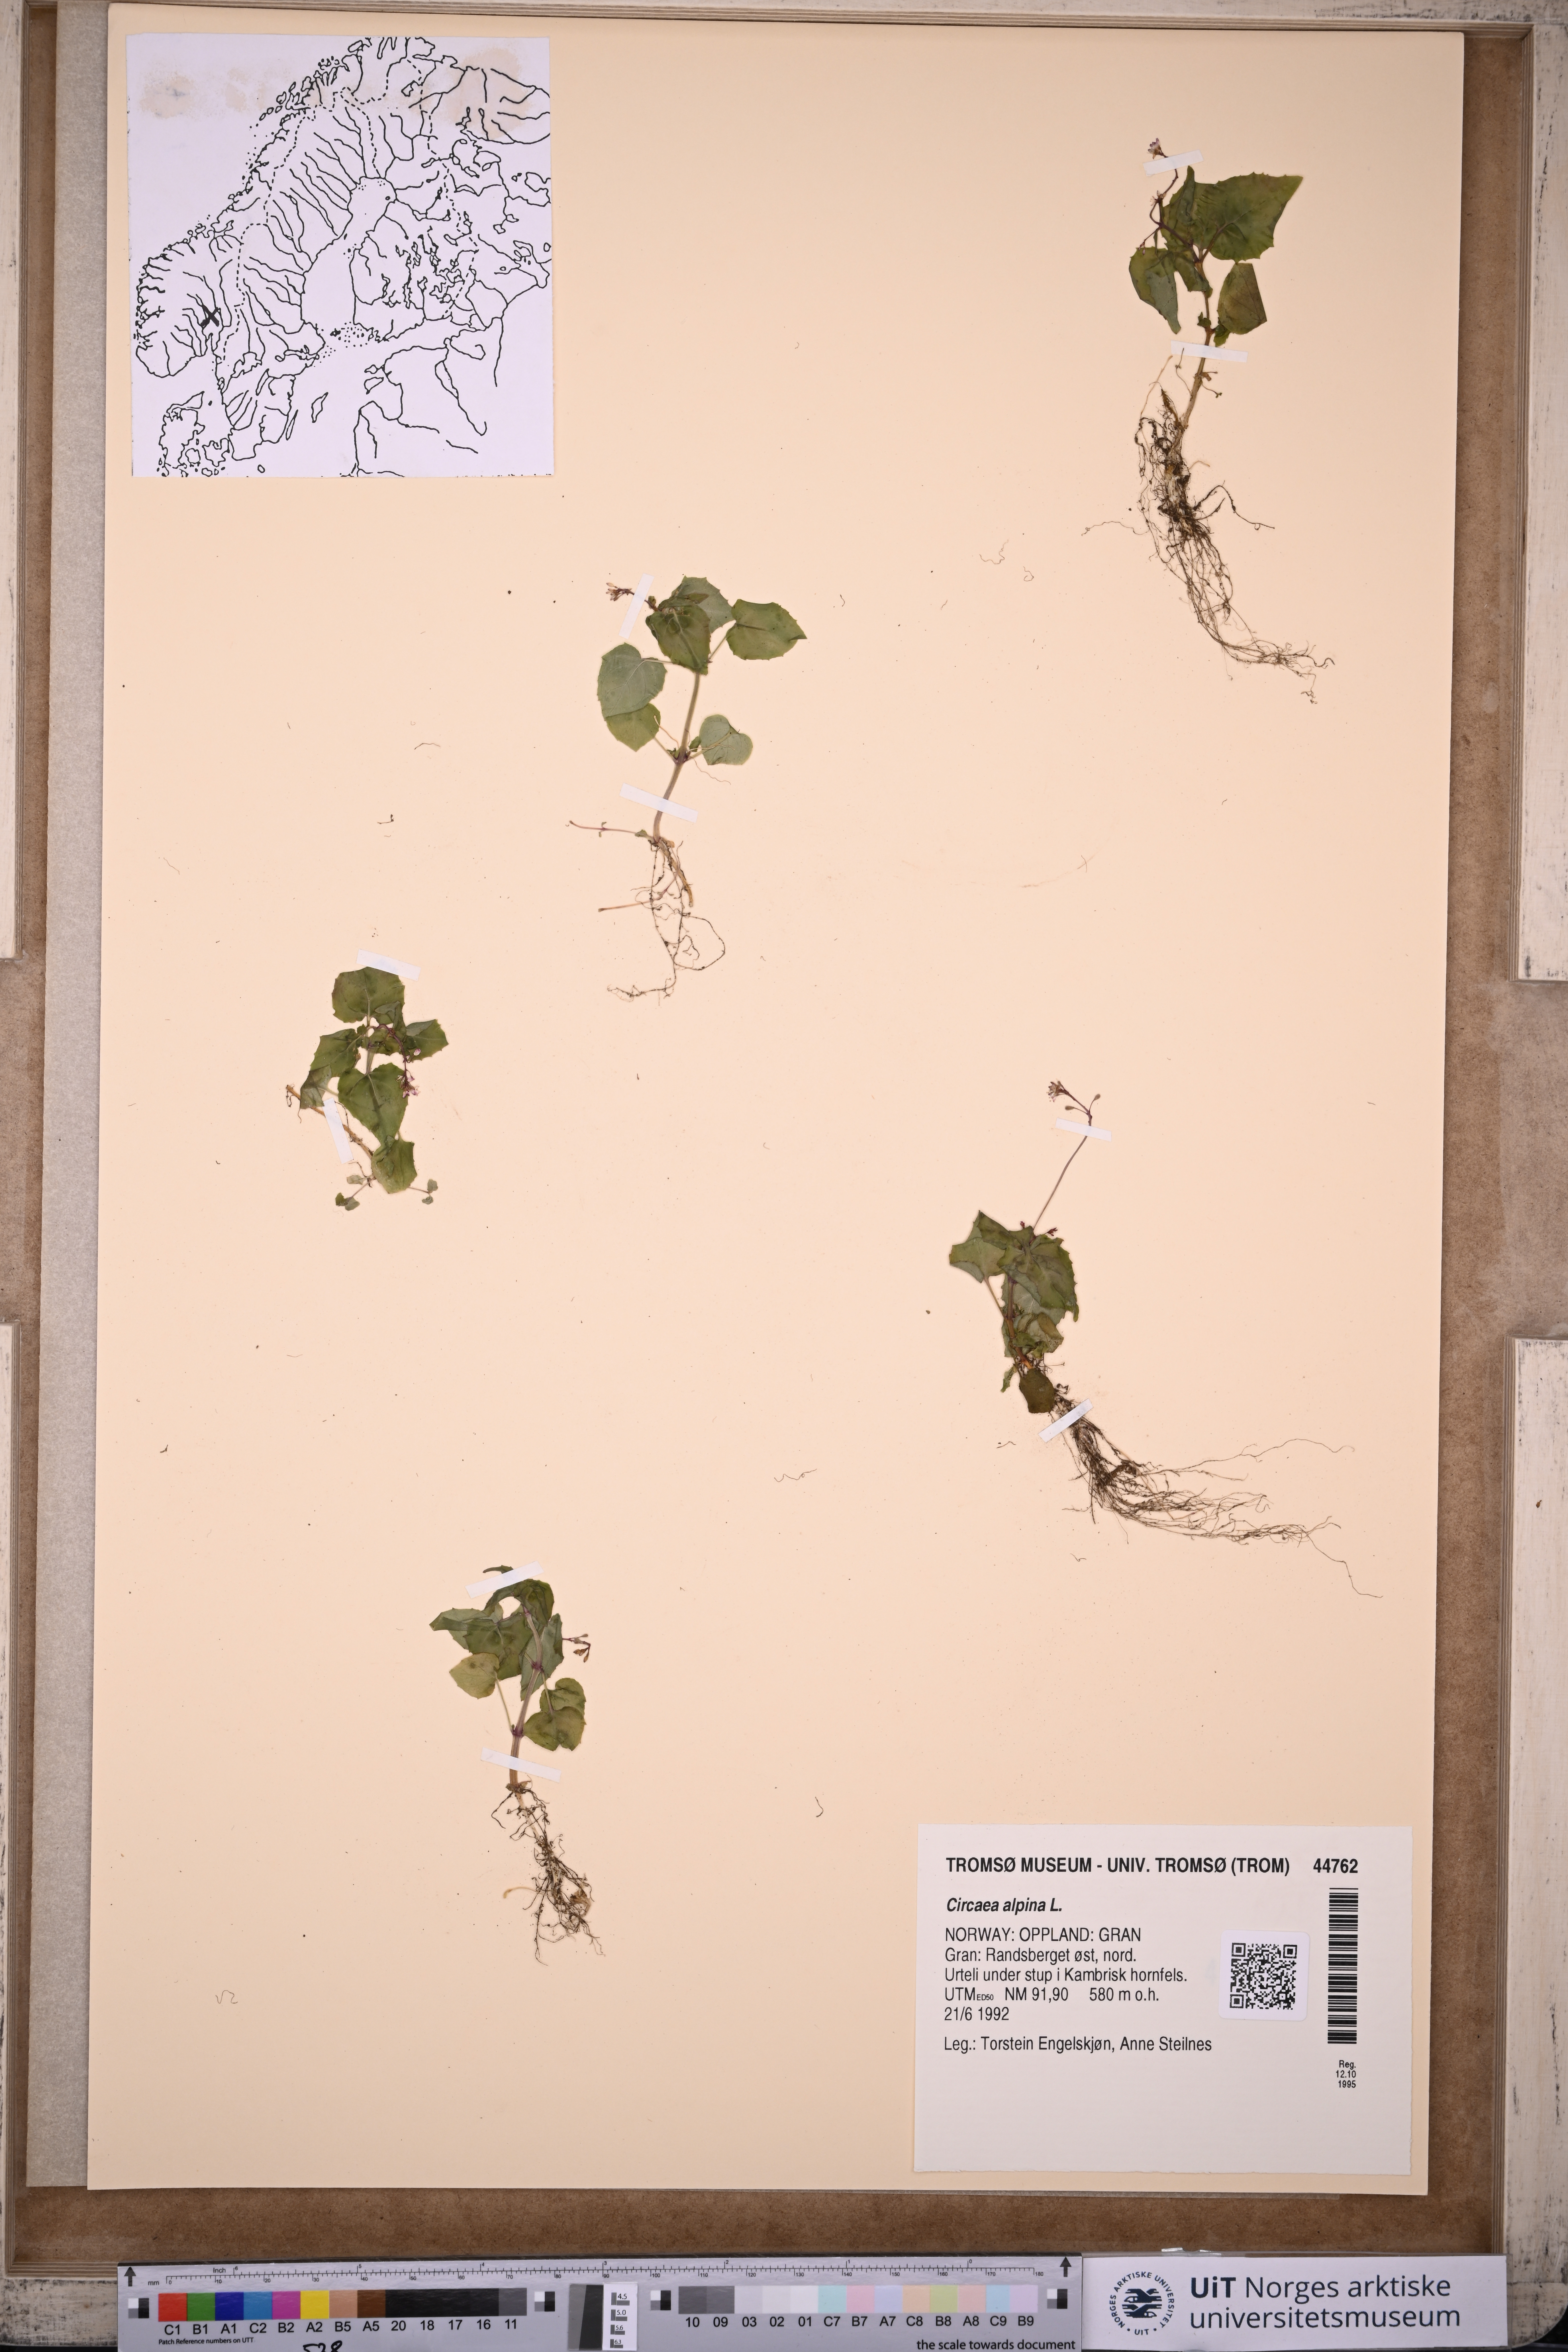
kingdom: Plantae
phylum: Tracheophyta
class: Magnoliopsida
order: Myrtales
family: Onagraceae
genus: Circaea
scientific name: Circaea alpina
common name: Alpine enchanter's-nightshade
